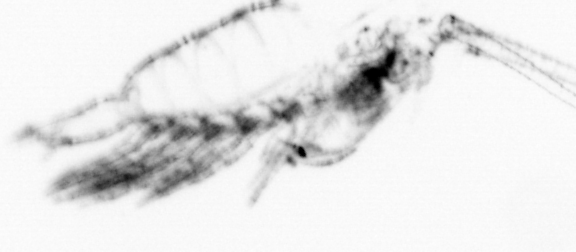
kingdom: Animalia
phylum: Arthropoda
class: Copepoda
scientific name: Copepoda
